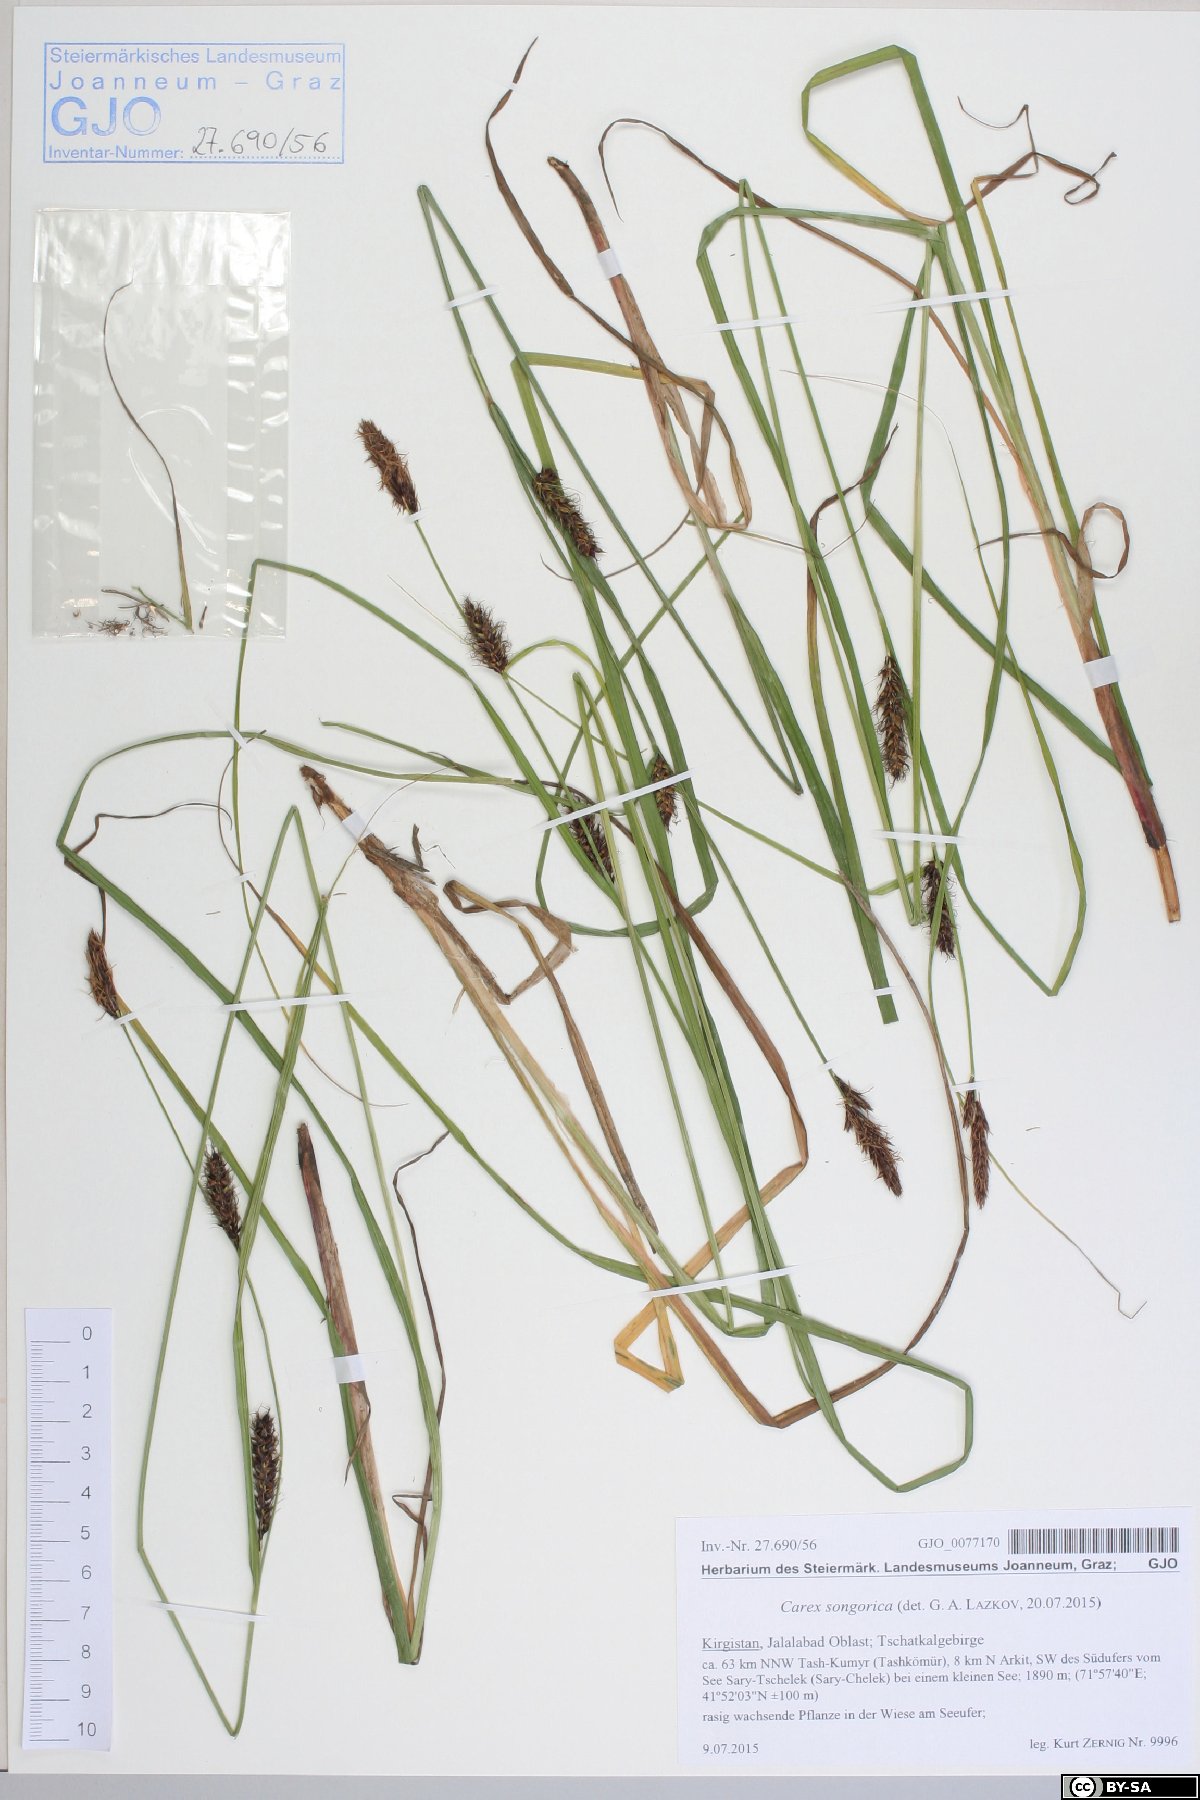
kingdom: Plantae
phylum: Tracheophyta
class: Liliopsida
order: Poales
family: Cyperaceae
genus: Carex
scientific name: Carex songorica
